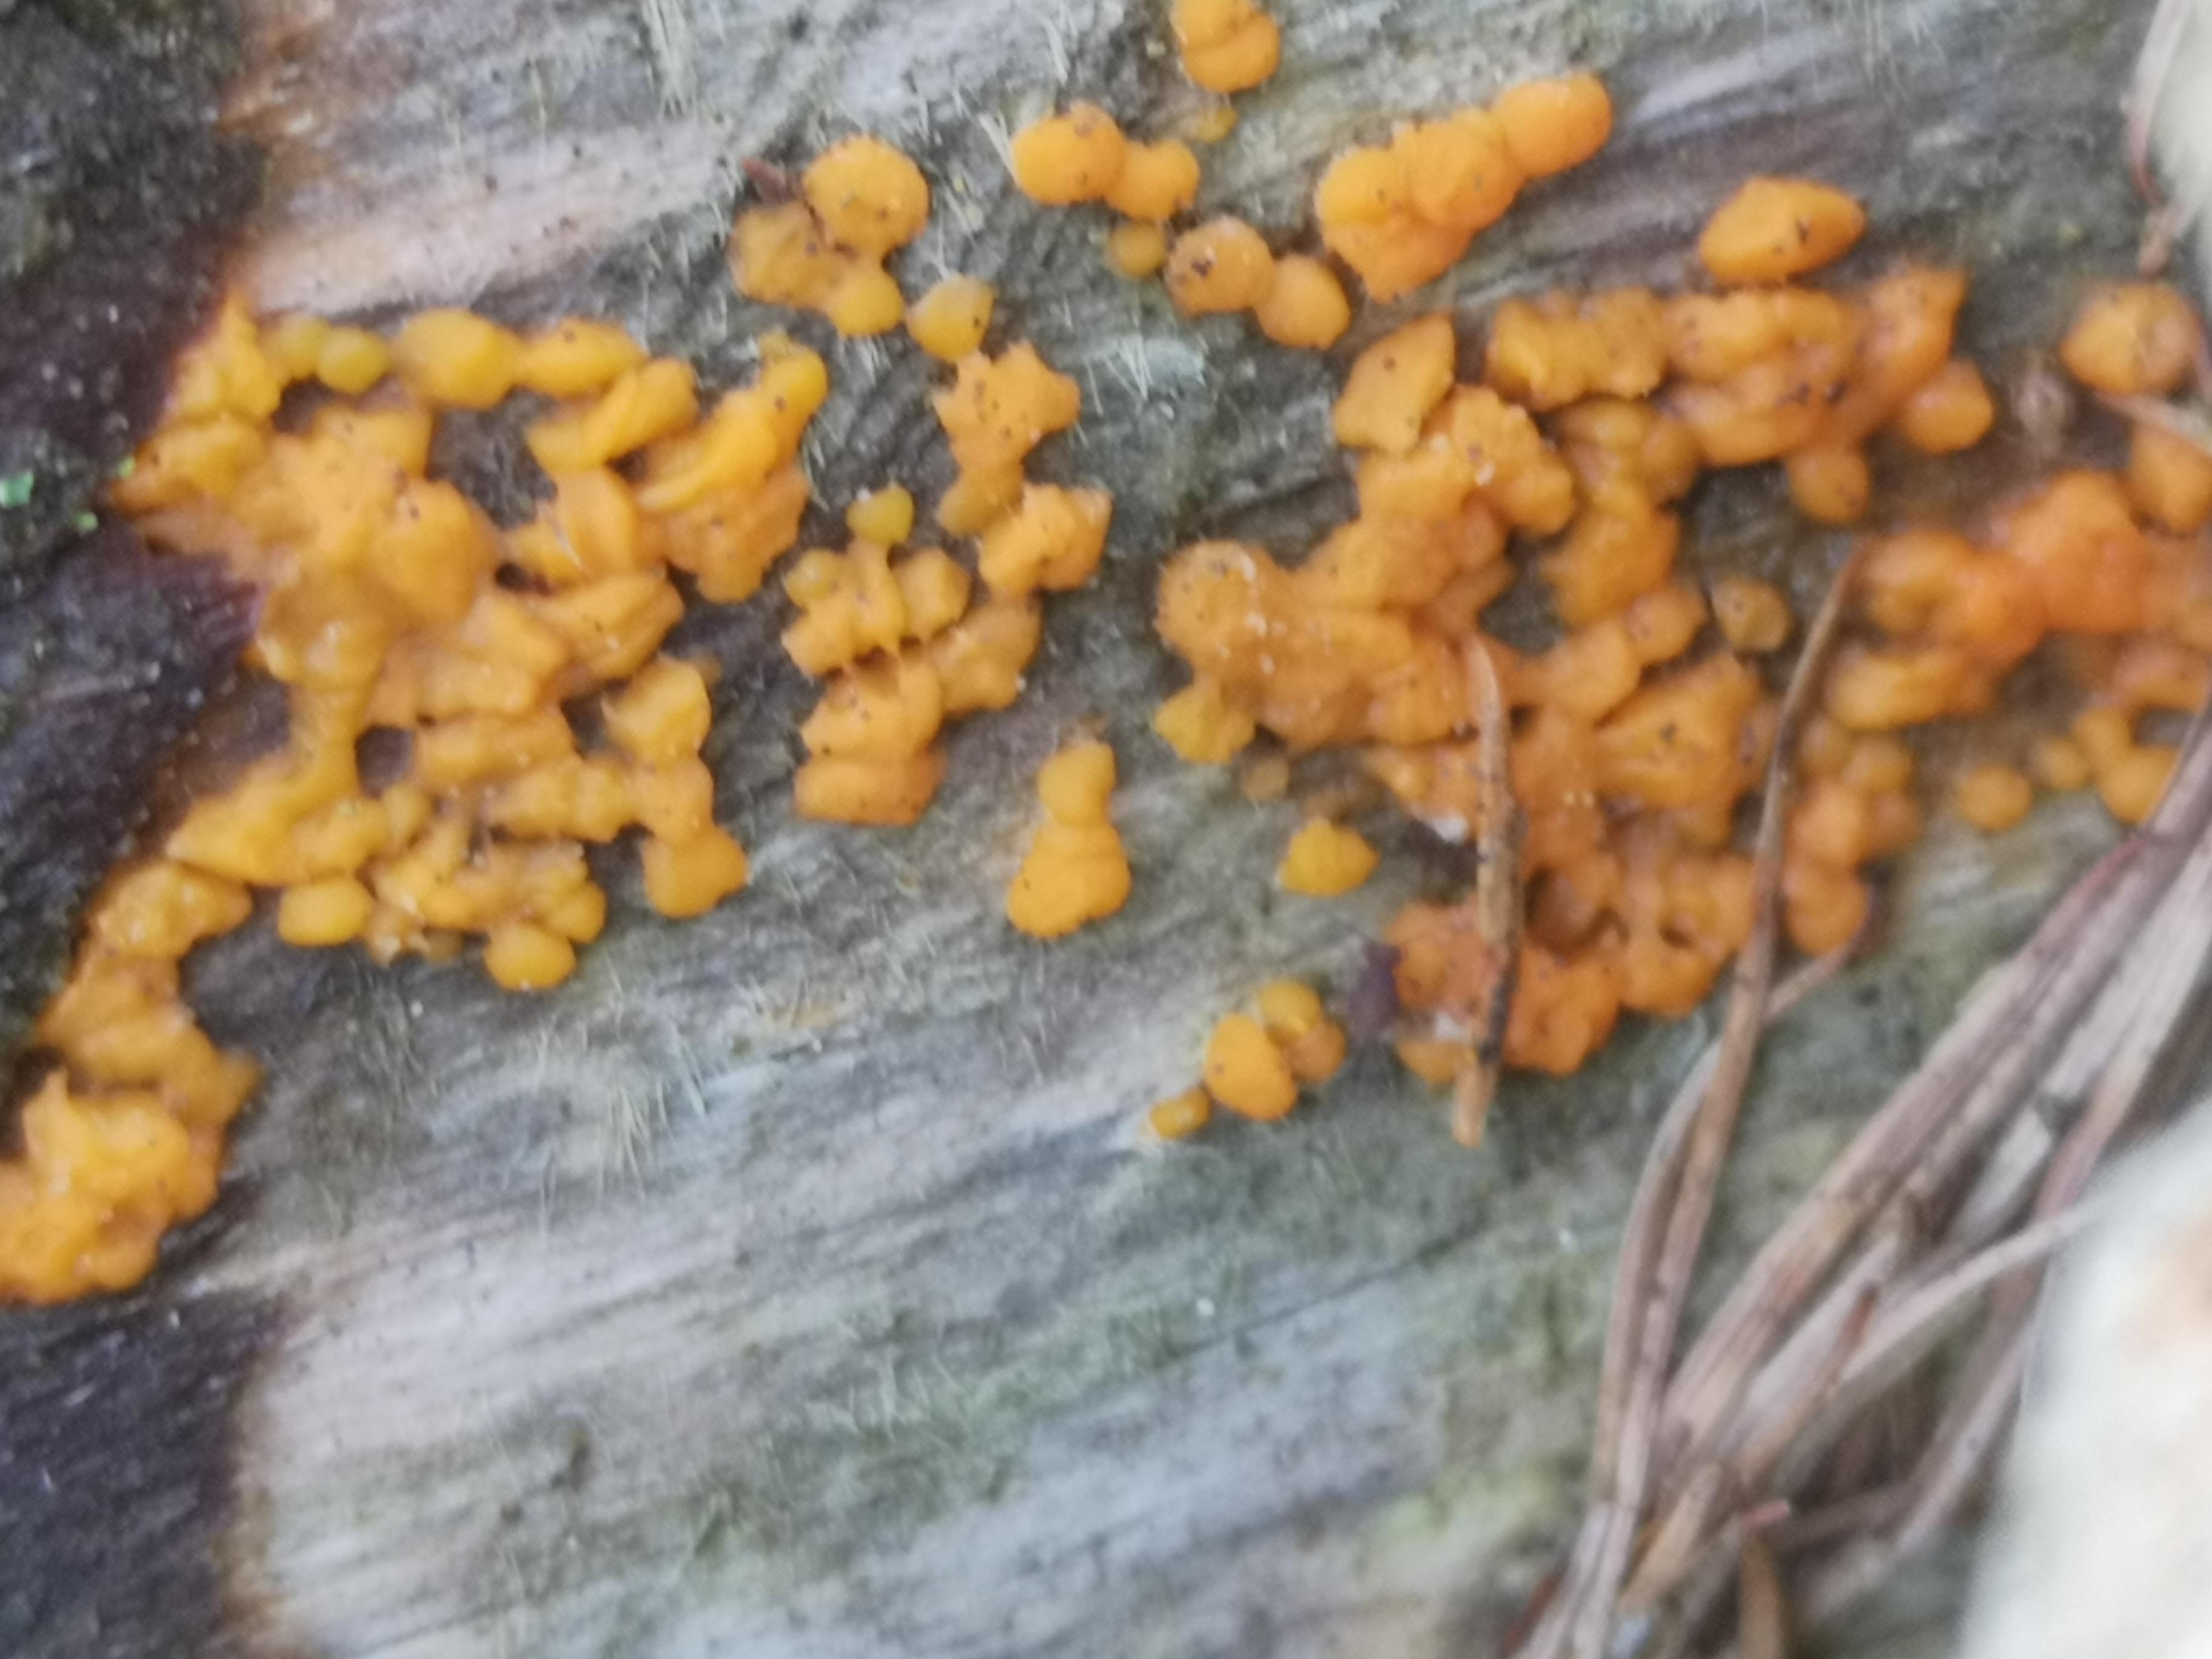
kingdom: Fungi
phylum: Basidiomycota
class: Dacrymycetes
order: Dacrymycetales
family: Dacrymycetaceae
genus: Dacrymyces
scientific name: Dacrymyces stillatus
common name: almindelig tåresvamp
